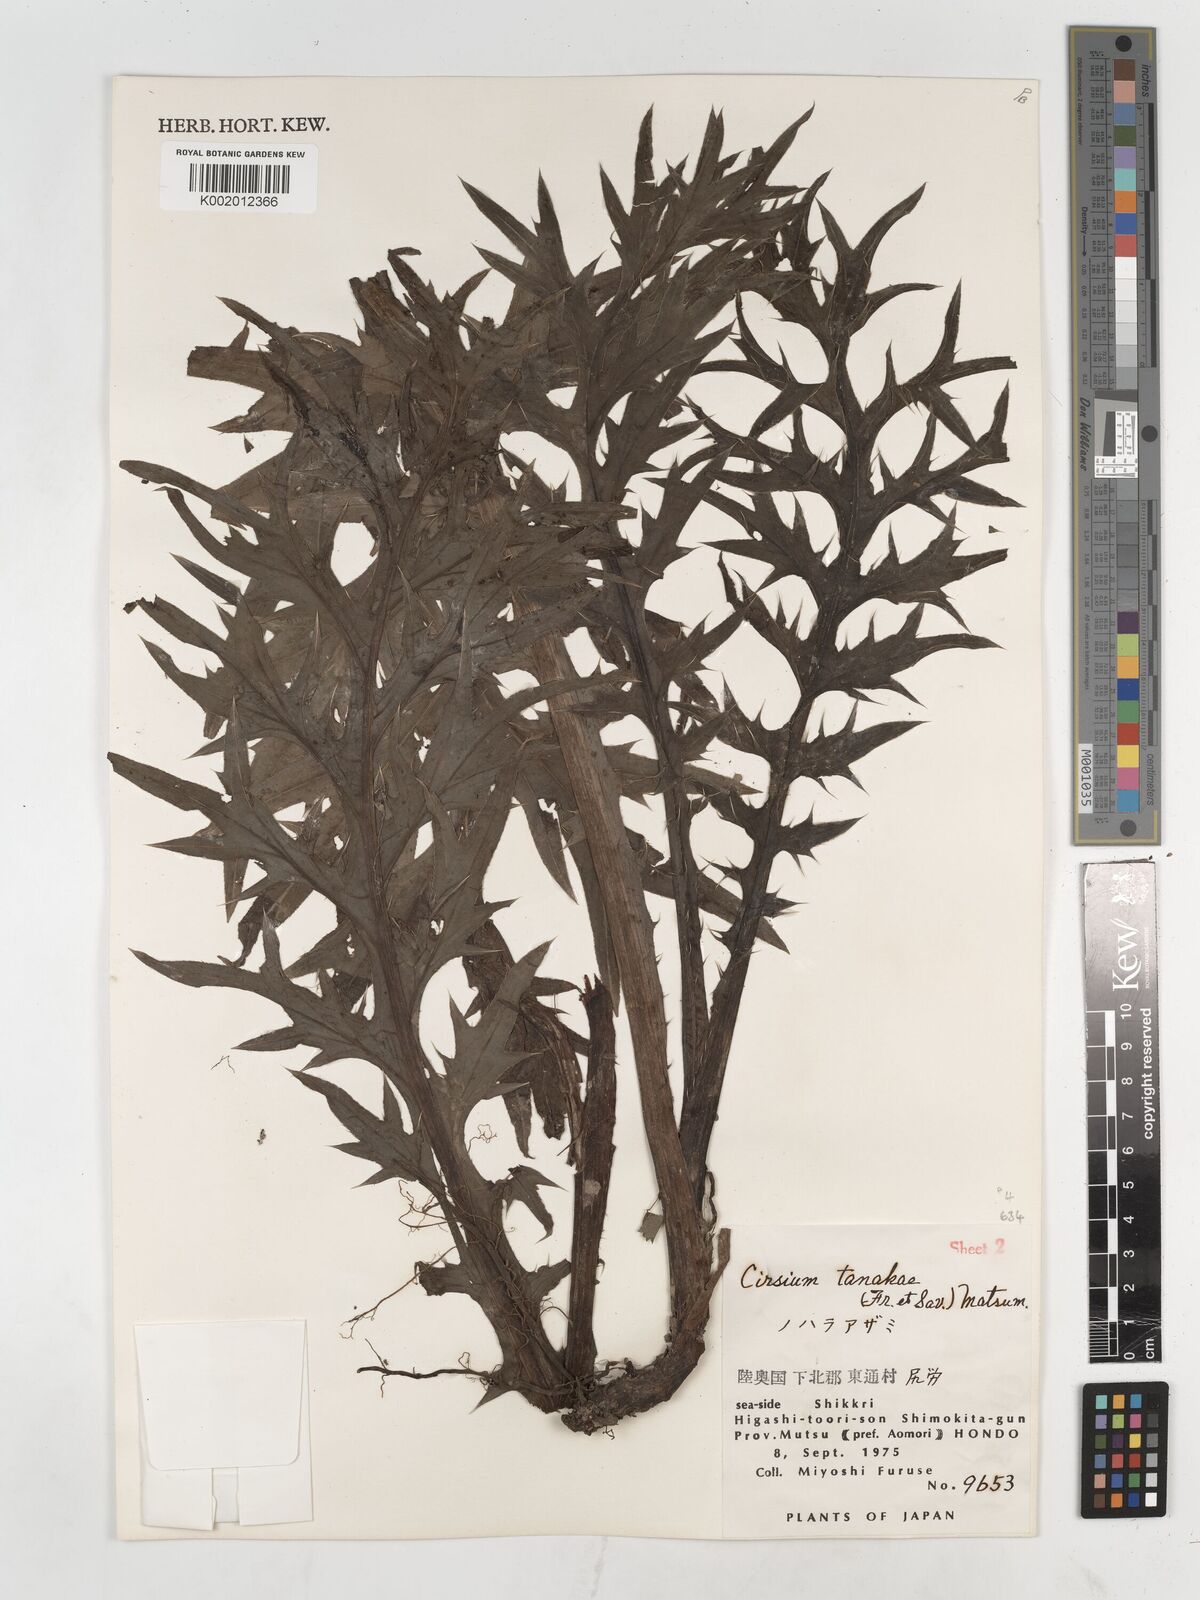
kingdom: Plantae
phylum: Tracheophyta
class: Magnoliopsida
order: Asterales
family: Asteraceae
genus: Cirsium
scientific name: Cirsium nipponicum
